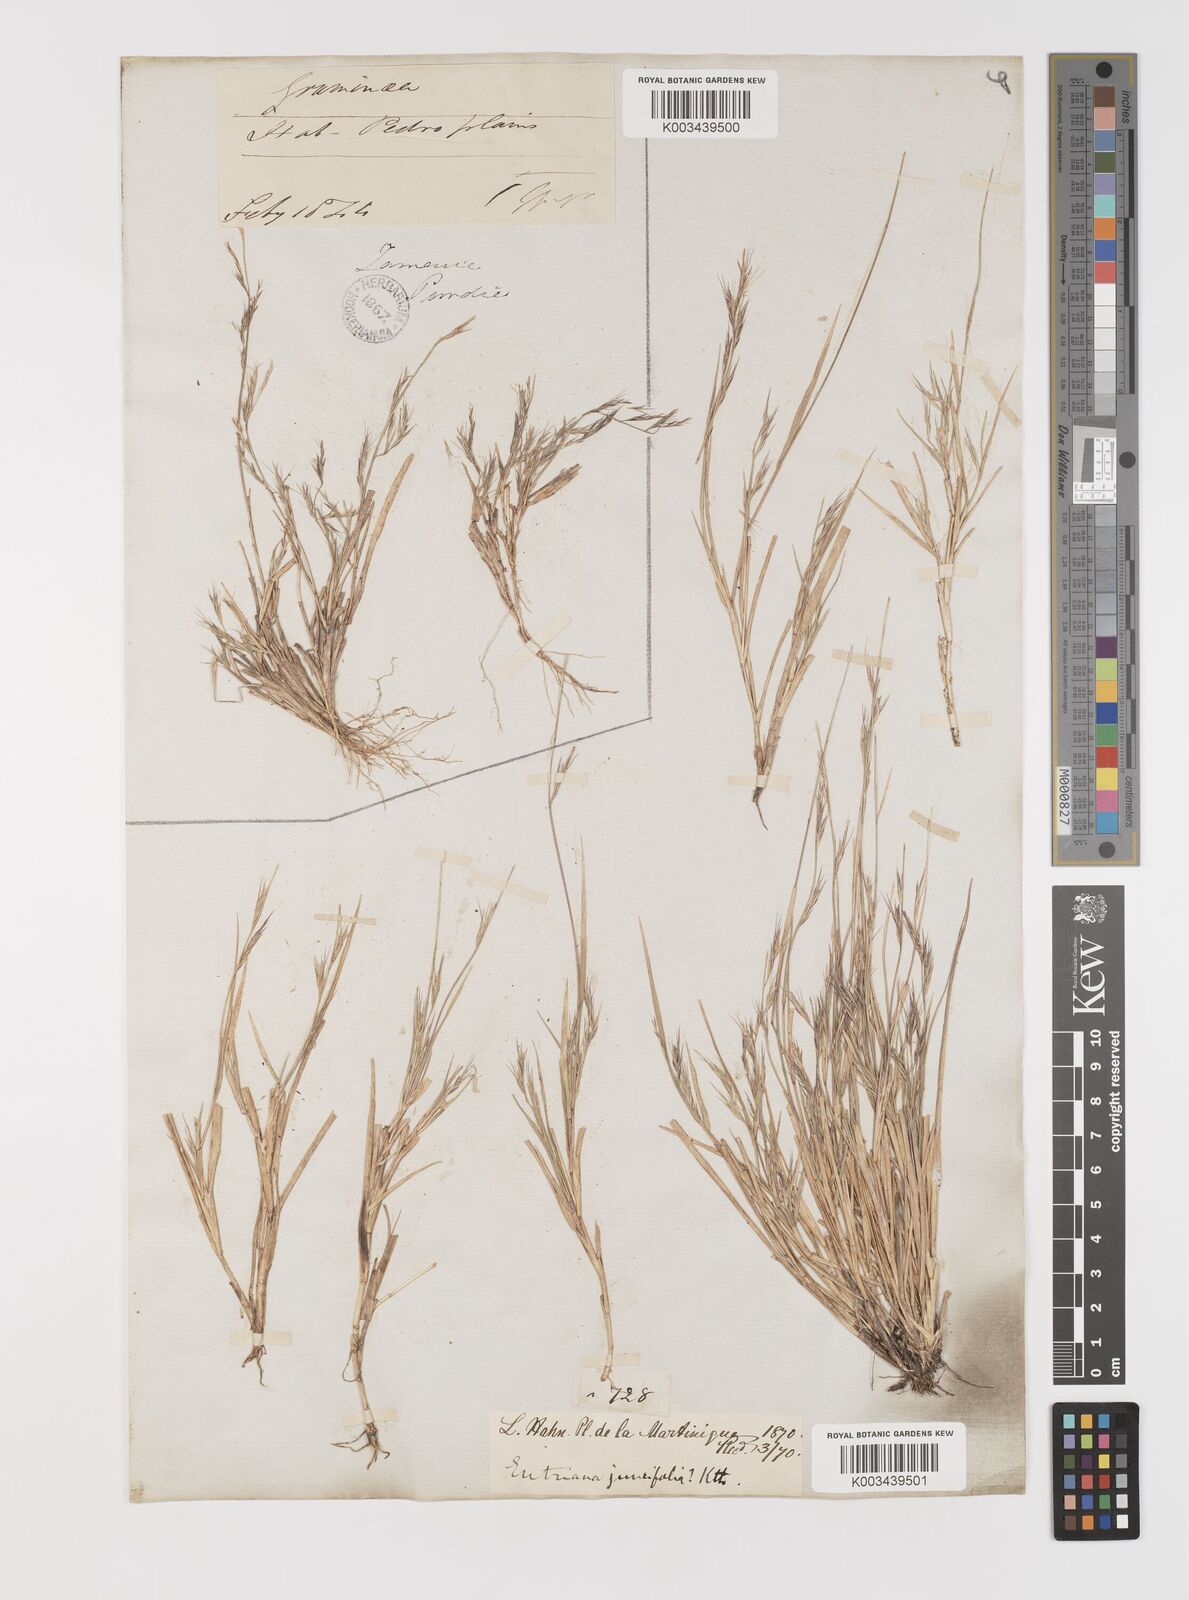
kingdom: Plantae
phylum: Tracheophyta
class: Liliopsida
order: Poales
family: Poaceae
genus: Bouteloua
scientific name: Bouteloua americana
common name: Mule grass
